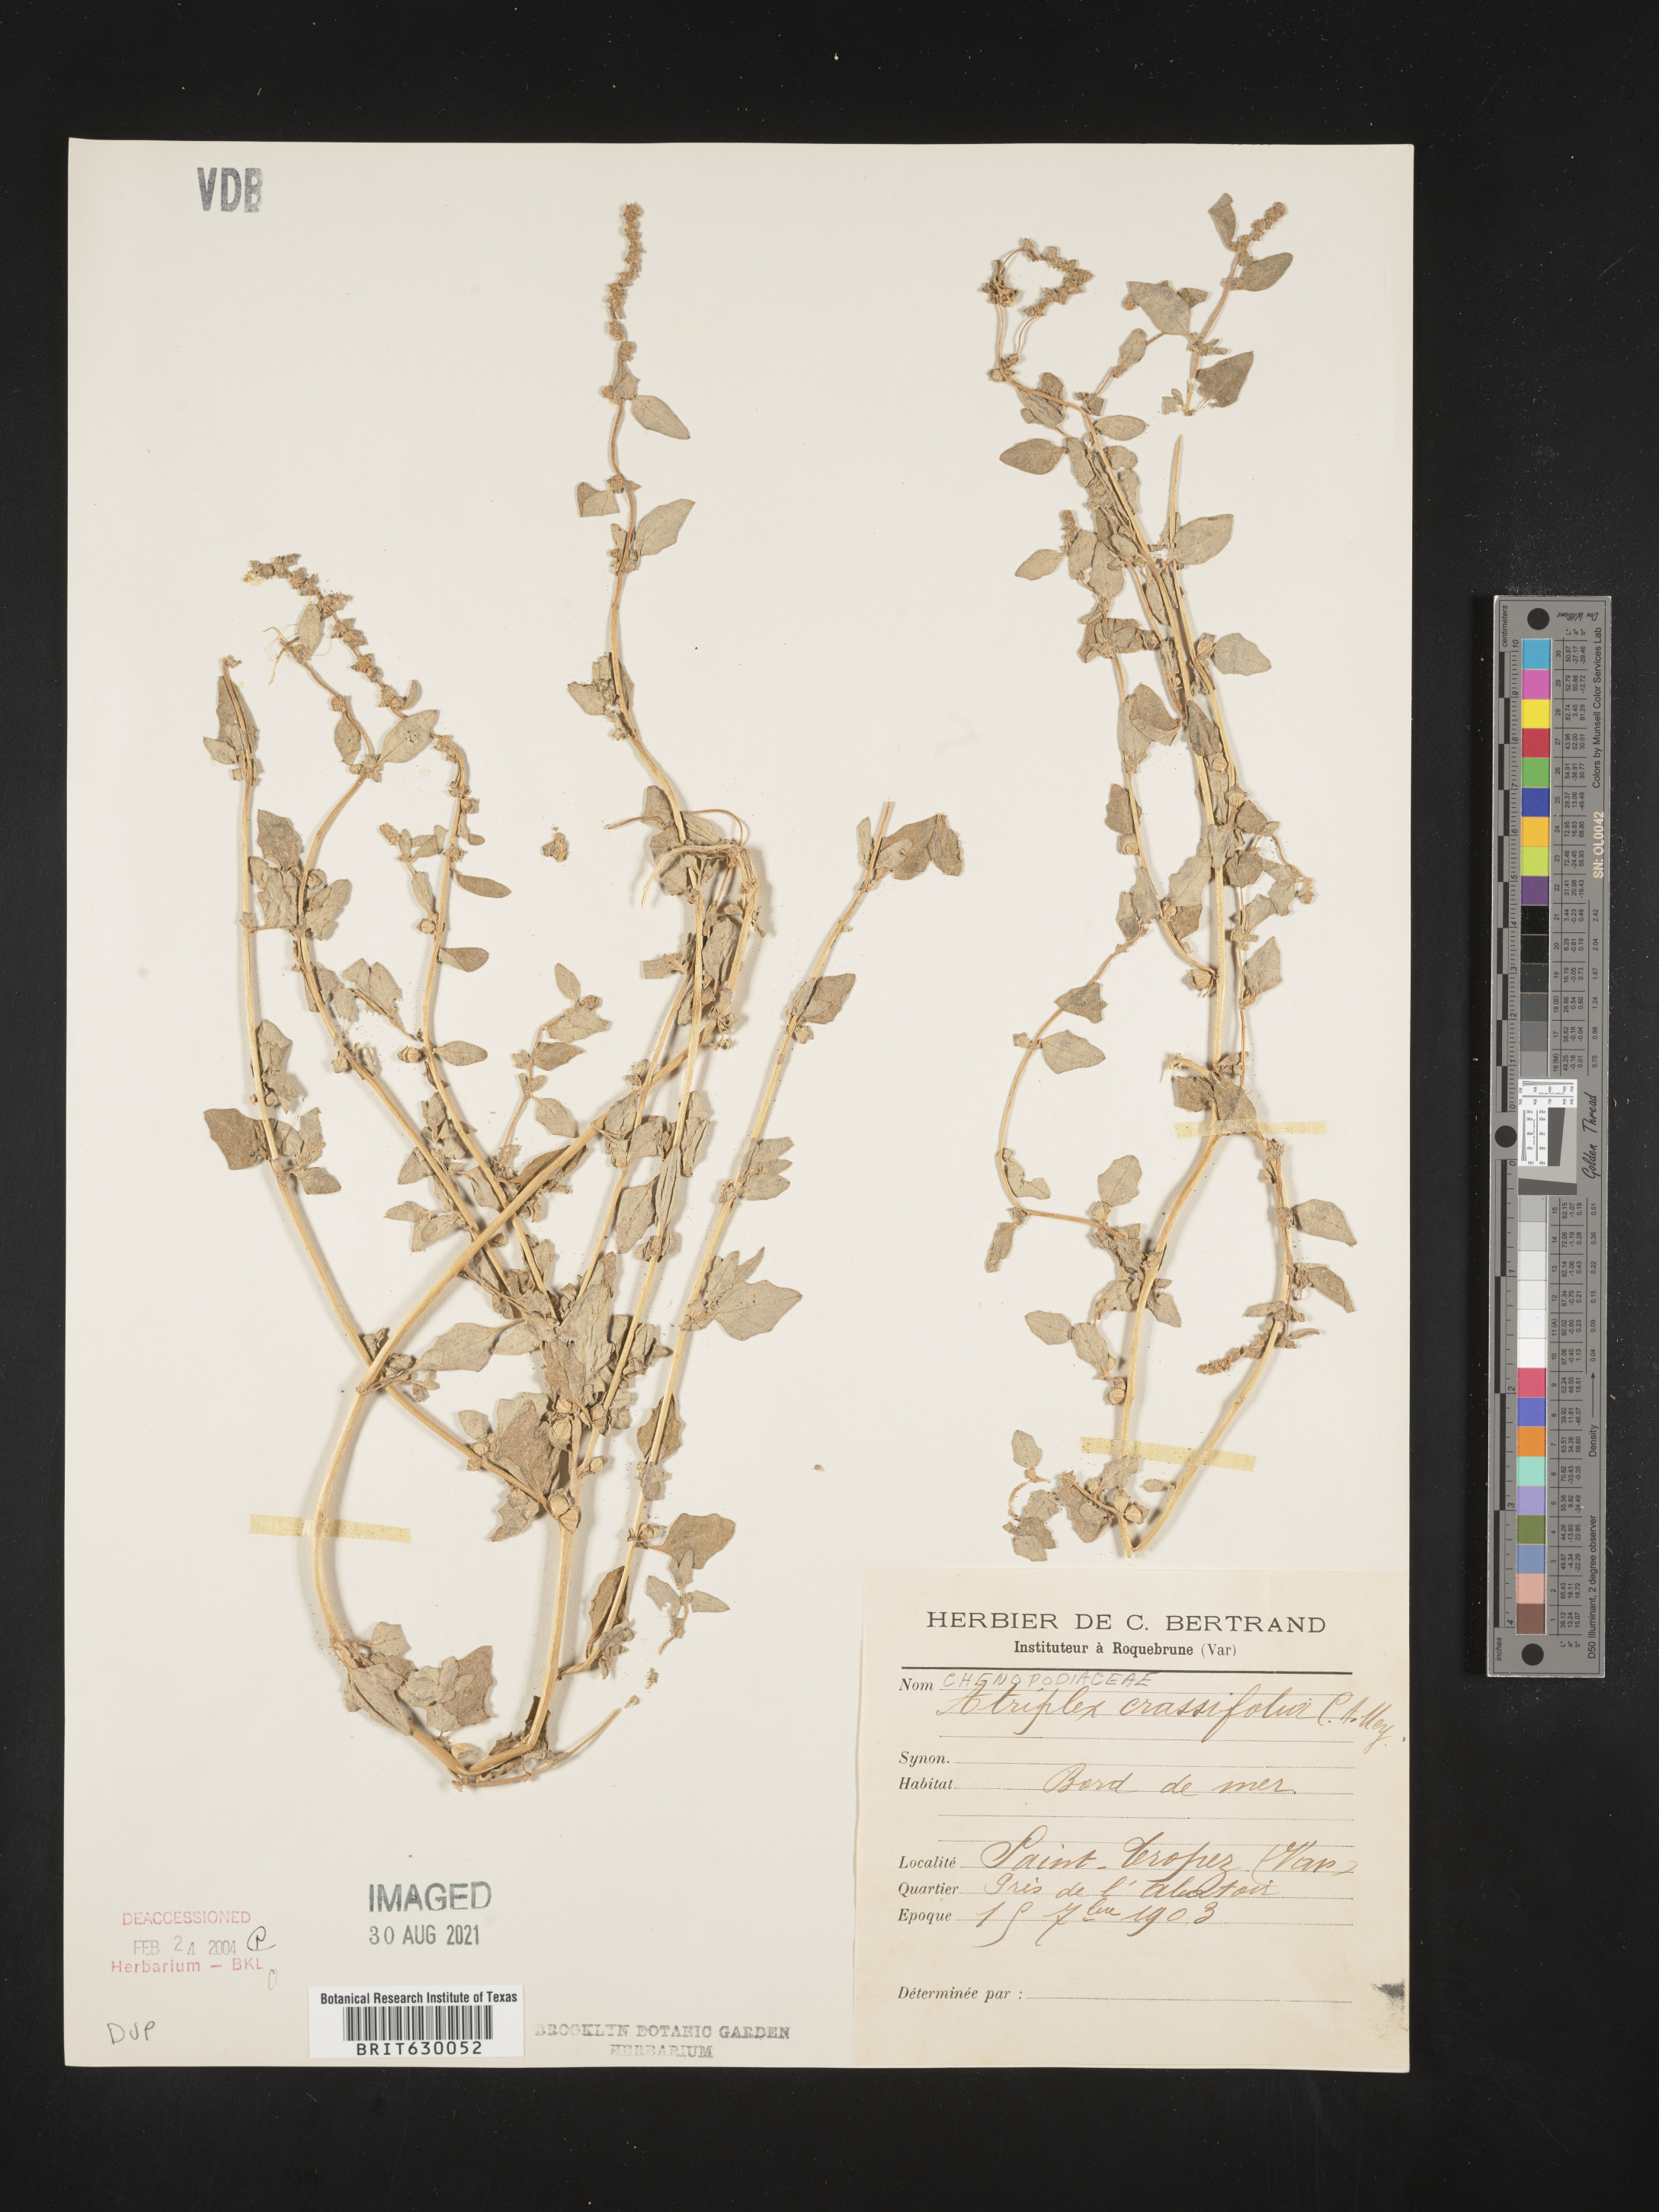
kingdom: Plantae
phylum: Tracheophyta
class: Magnoliopsida
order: Caryophyllales
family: Amaranthaceae
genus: Atriplex
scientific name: Atriplex crassifolia
